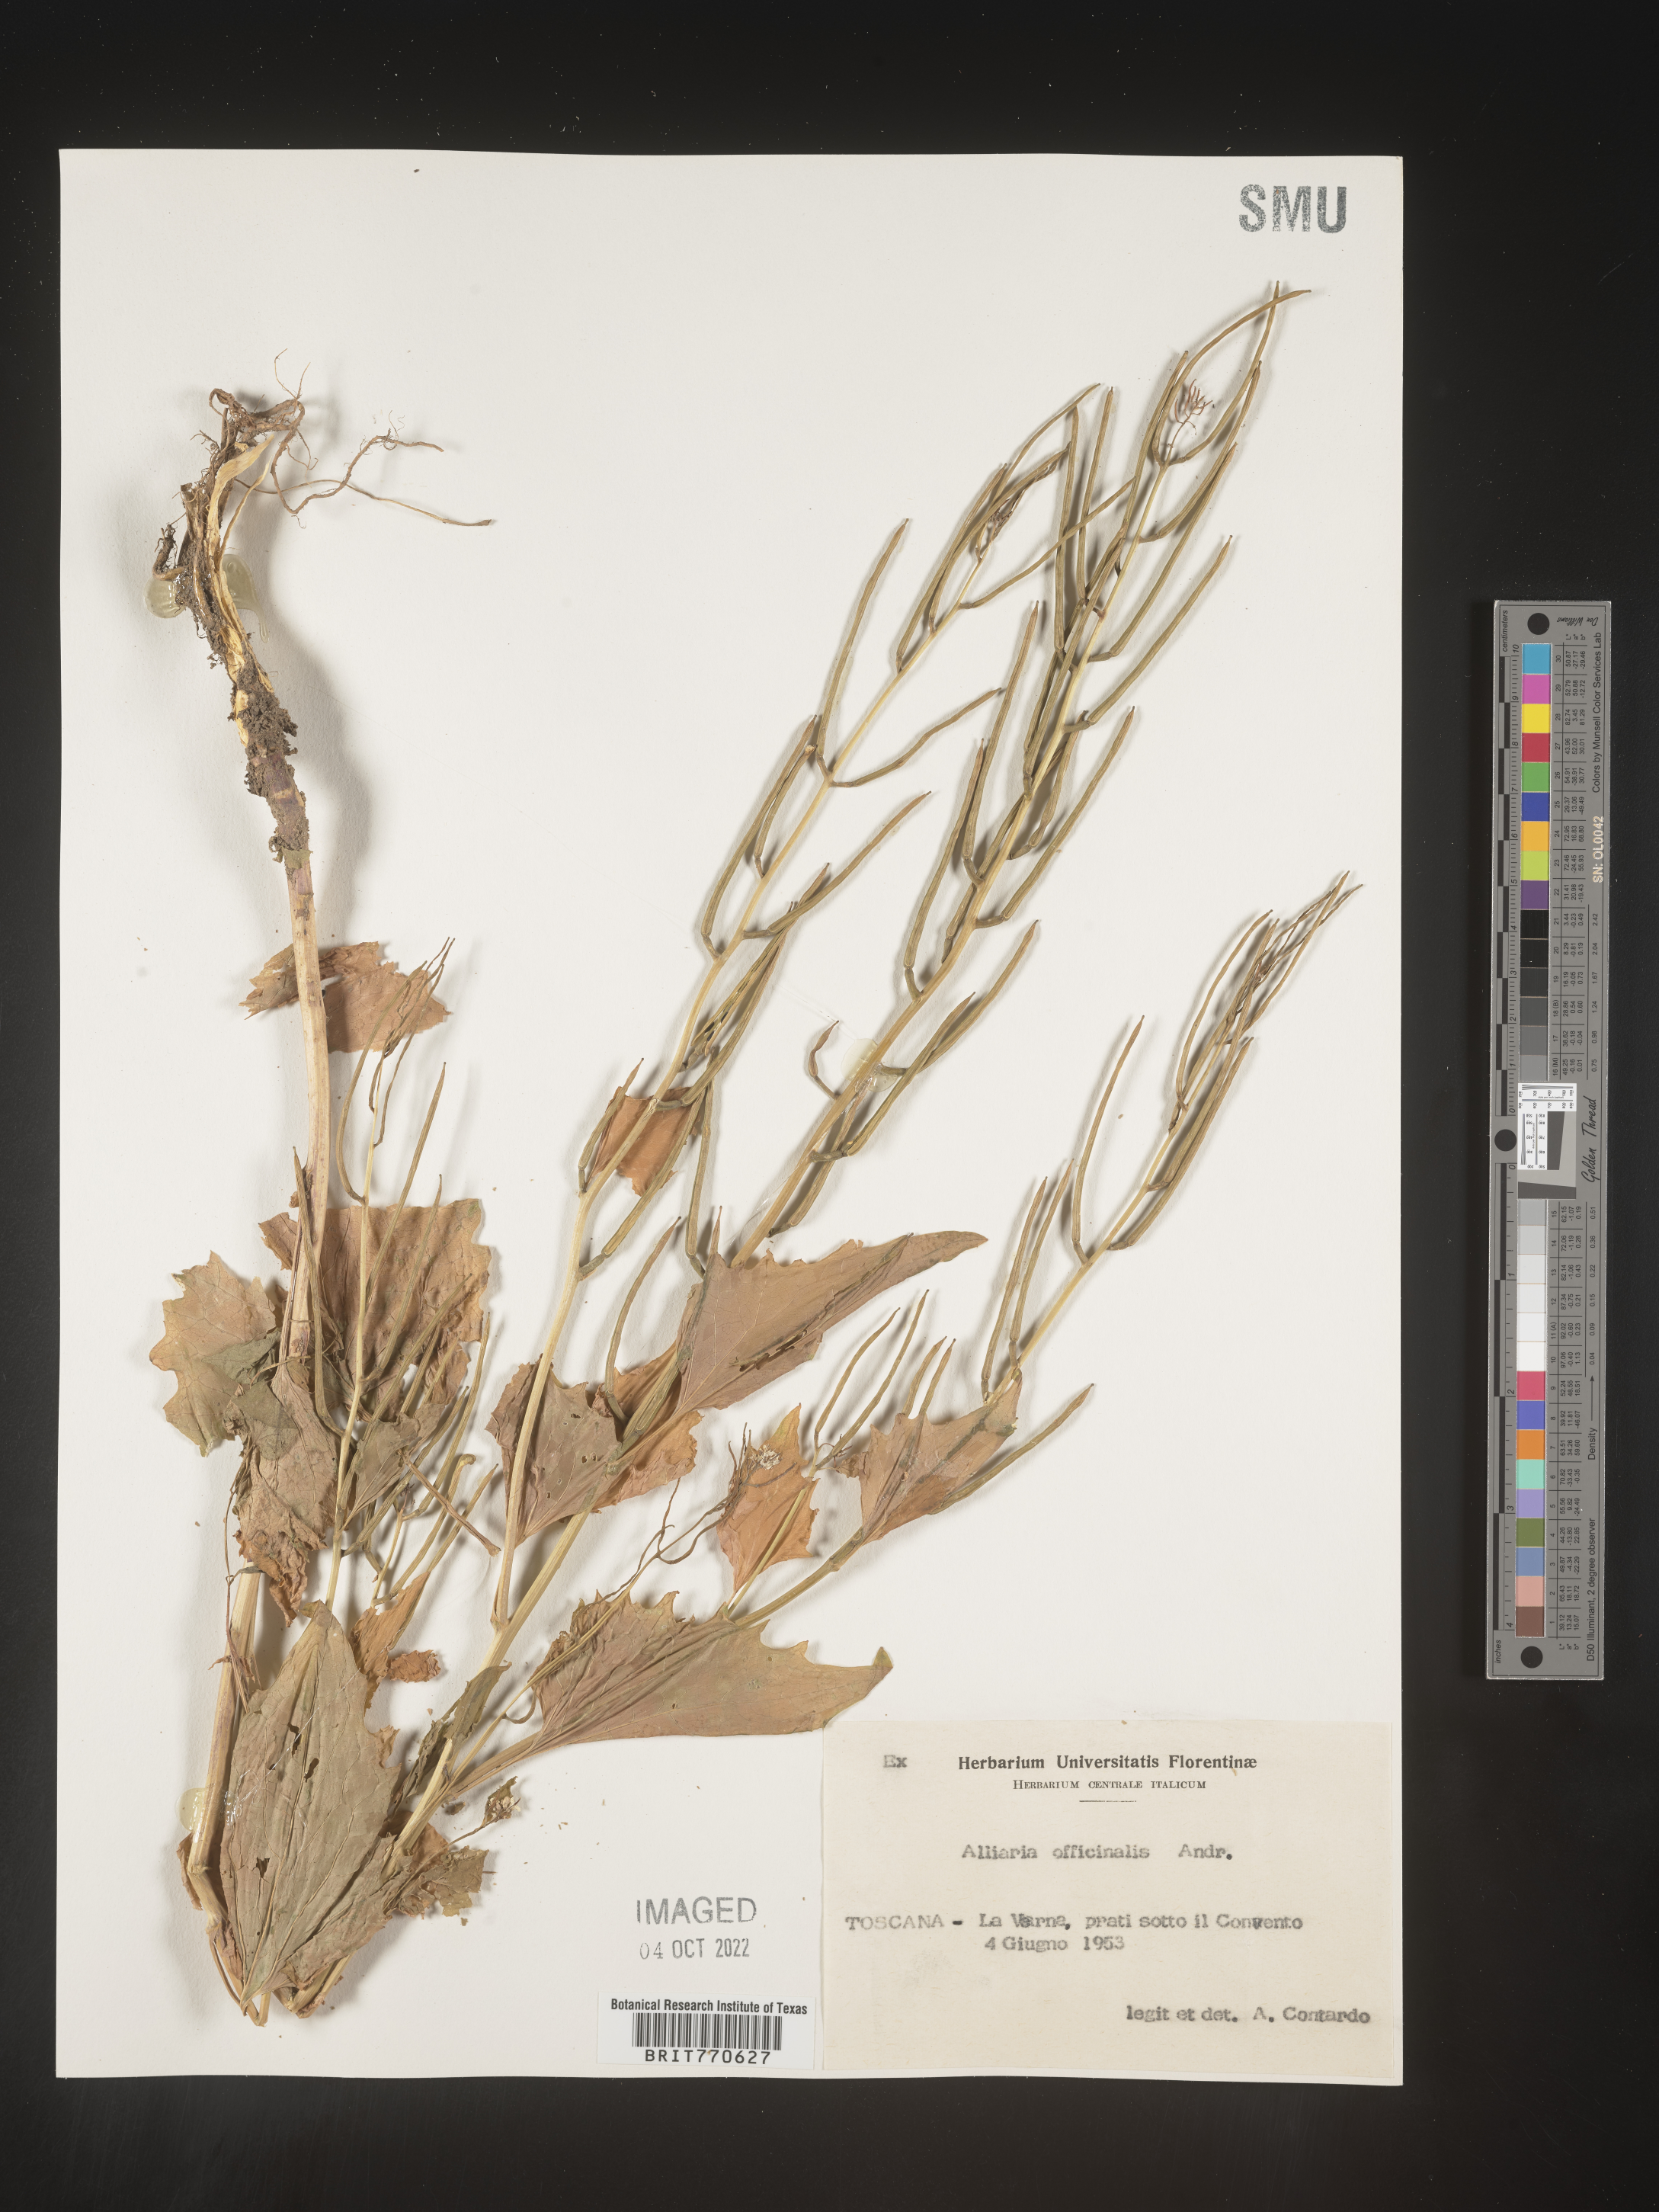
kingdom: Plantae
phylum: Tracheophyta
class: Magnoliopsida
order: Brassicales
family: Brassicaceae
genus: Alliaria
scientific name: Alliaria
